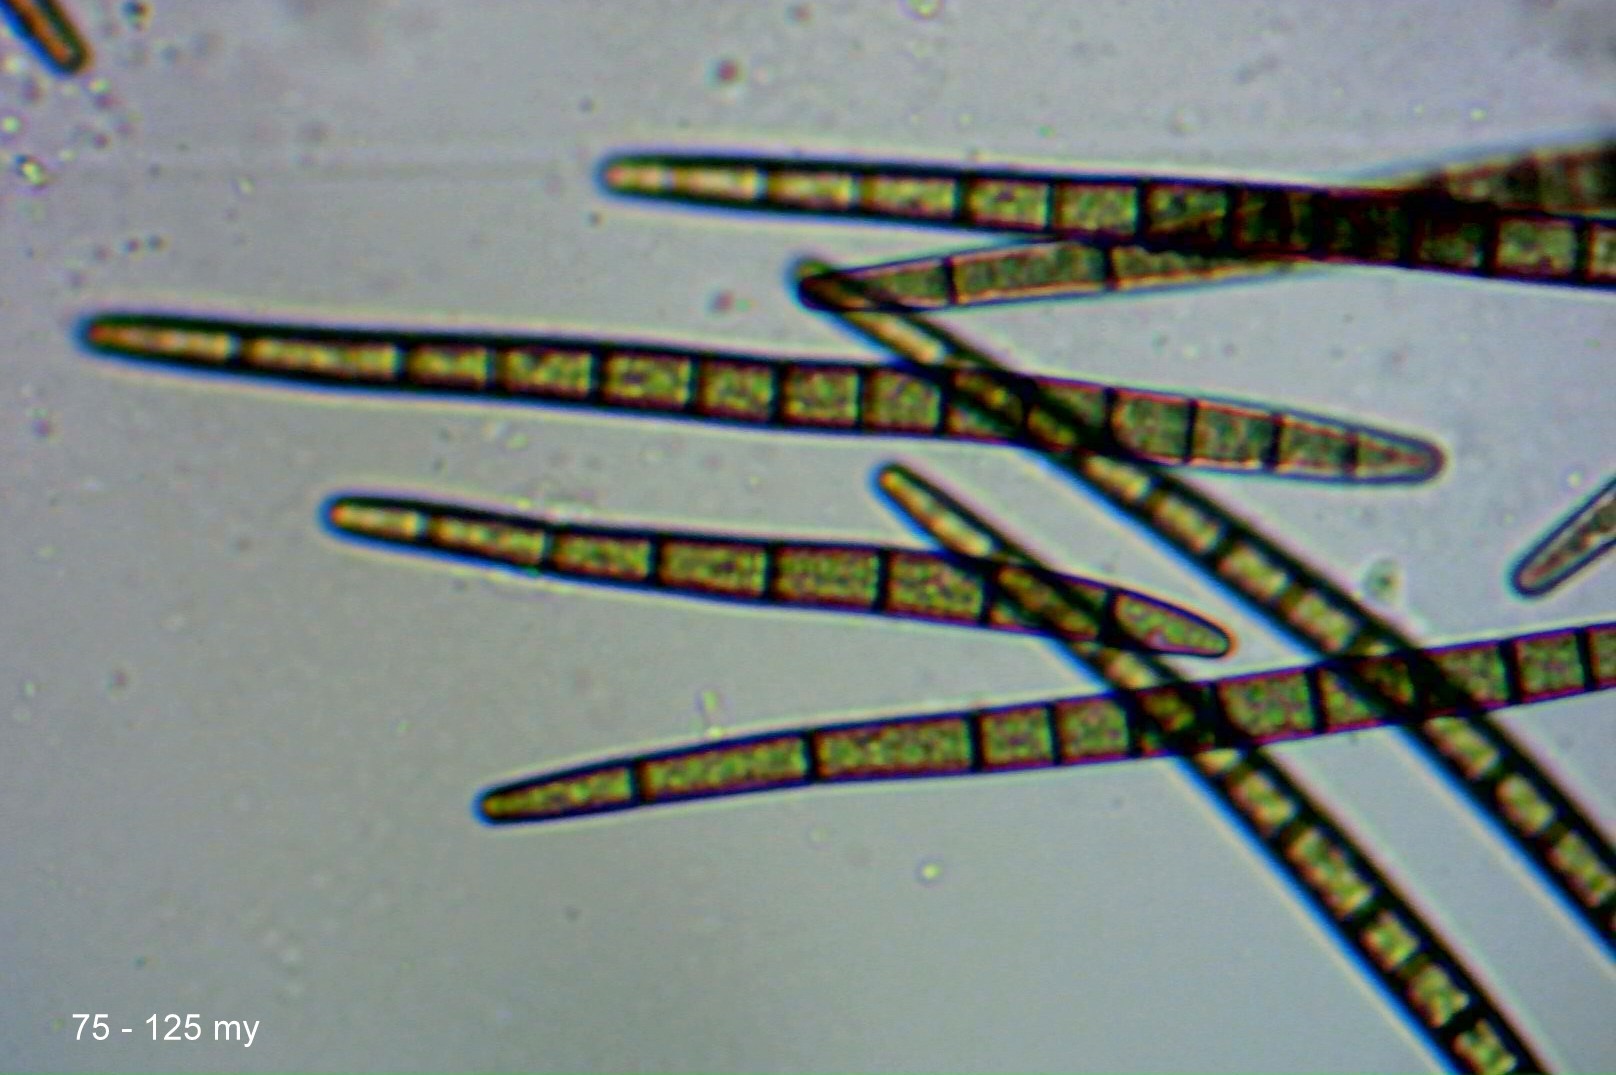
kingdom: Fungi
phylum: Ascomycota
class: Geoglossomycetes
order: Geoglossales
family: Geoglossaceae
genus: Trichoglossum
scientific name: Trichoglossum hirsutum
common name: håret jordtunge
